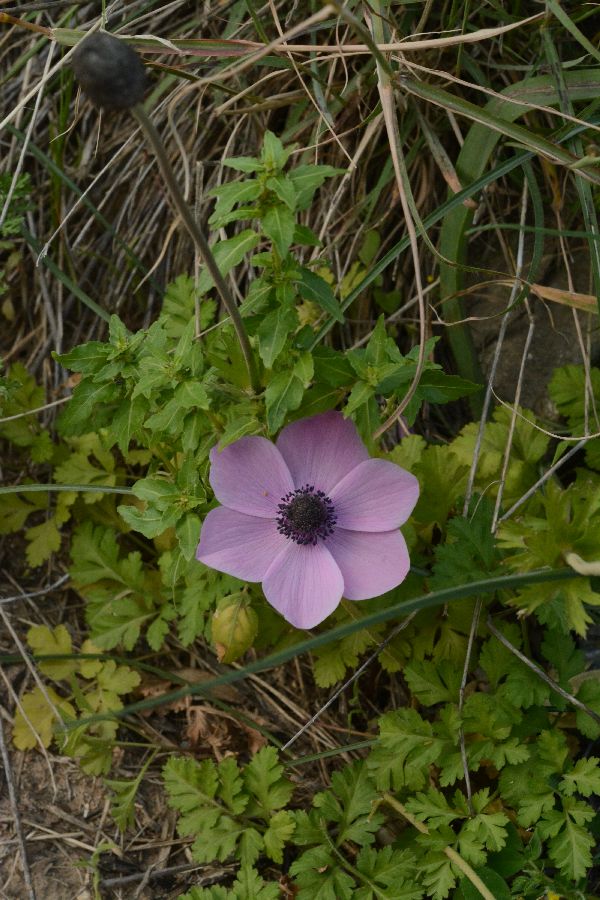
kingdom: Plantae
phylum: Tracheophyta
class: Magnoliopsida
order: Ranunculales
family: Ranunculaceae
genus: Anemone
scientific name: Anemone coronaria
